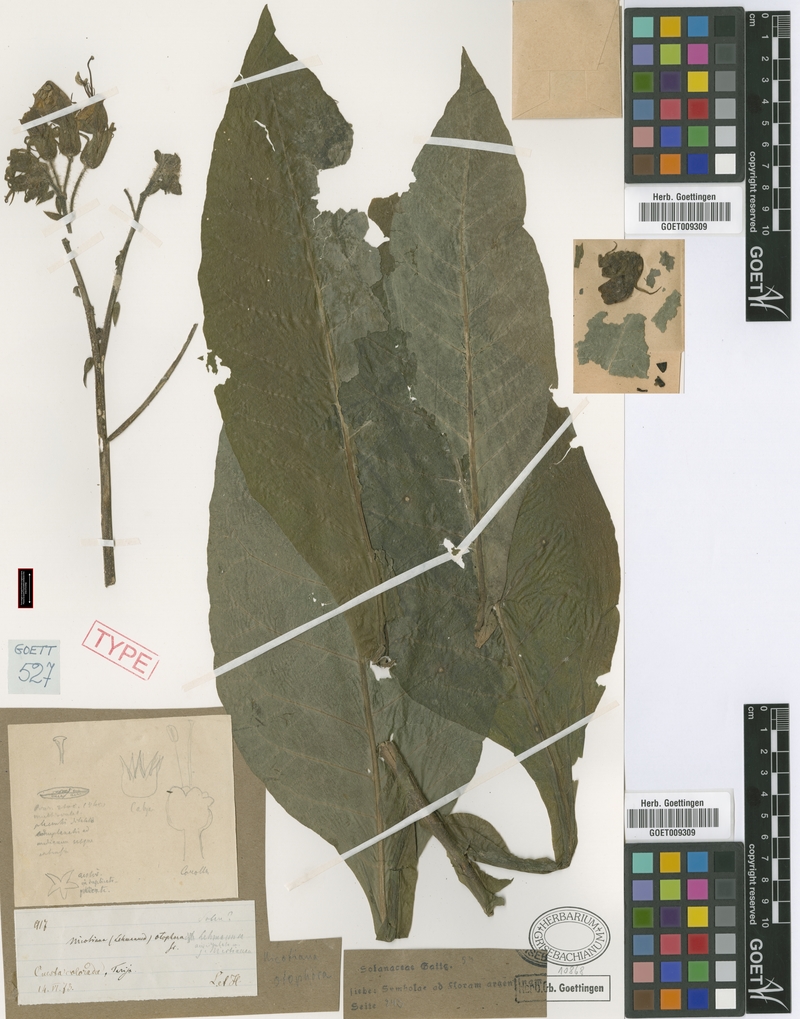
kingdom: Plantae
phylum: Tracheophyta
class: Magnoliopsida
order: Solanales
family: Solanaceae
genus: Nicotiana
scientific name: Nicotiana otophora
